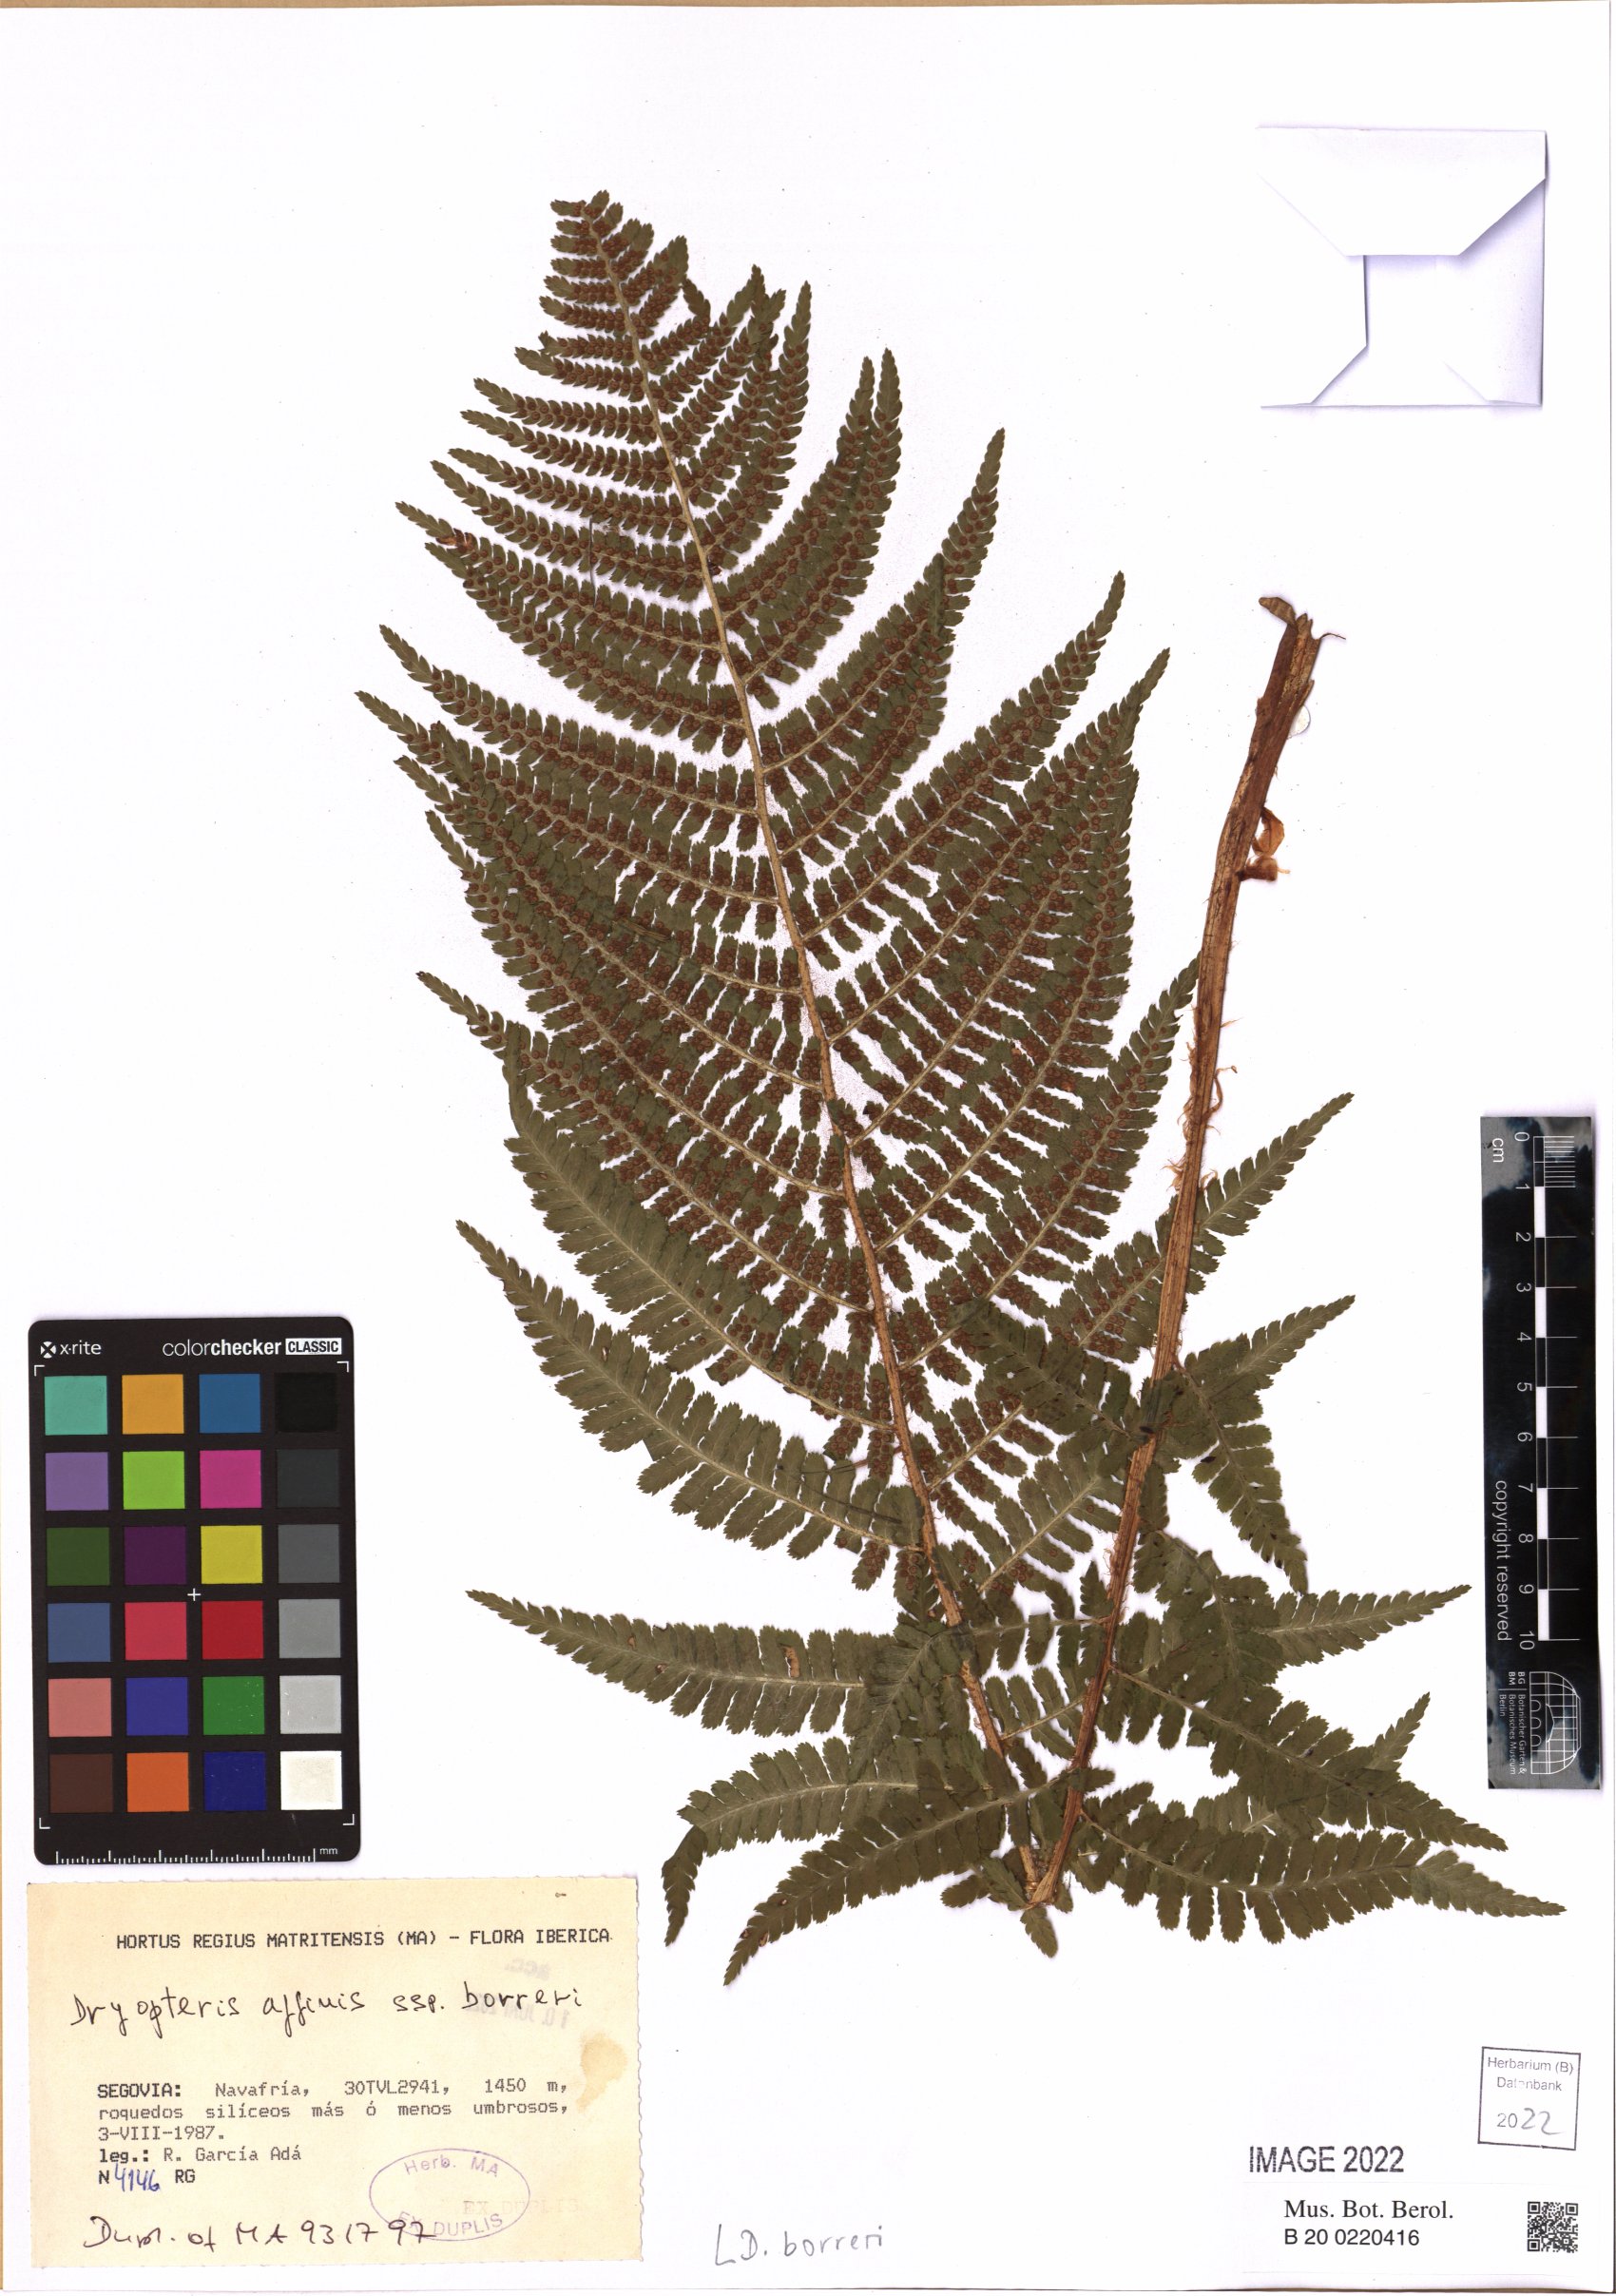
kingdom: Plantae
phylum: Tracheophyta
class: Polypodiopsida
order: Polypodiales
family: Dryopteridaceae
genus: Dryopteris
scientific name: Dryopteris borreri
